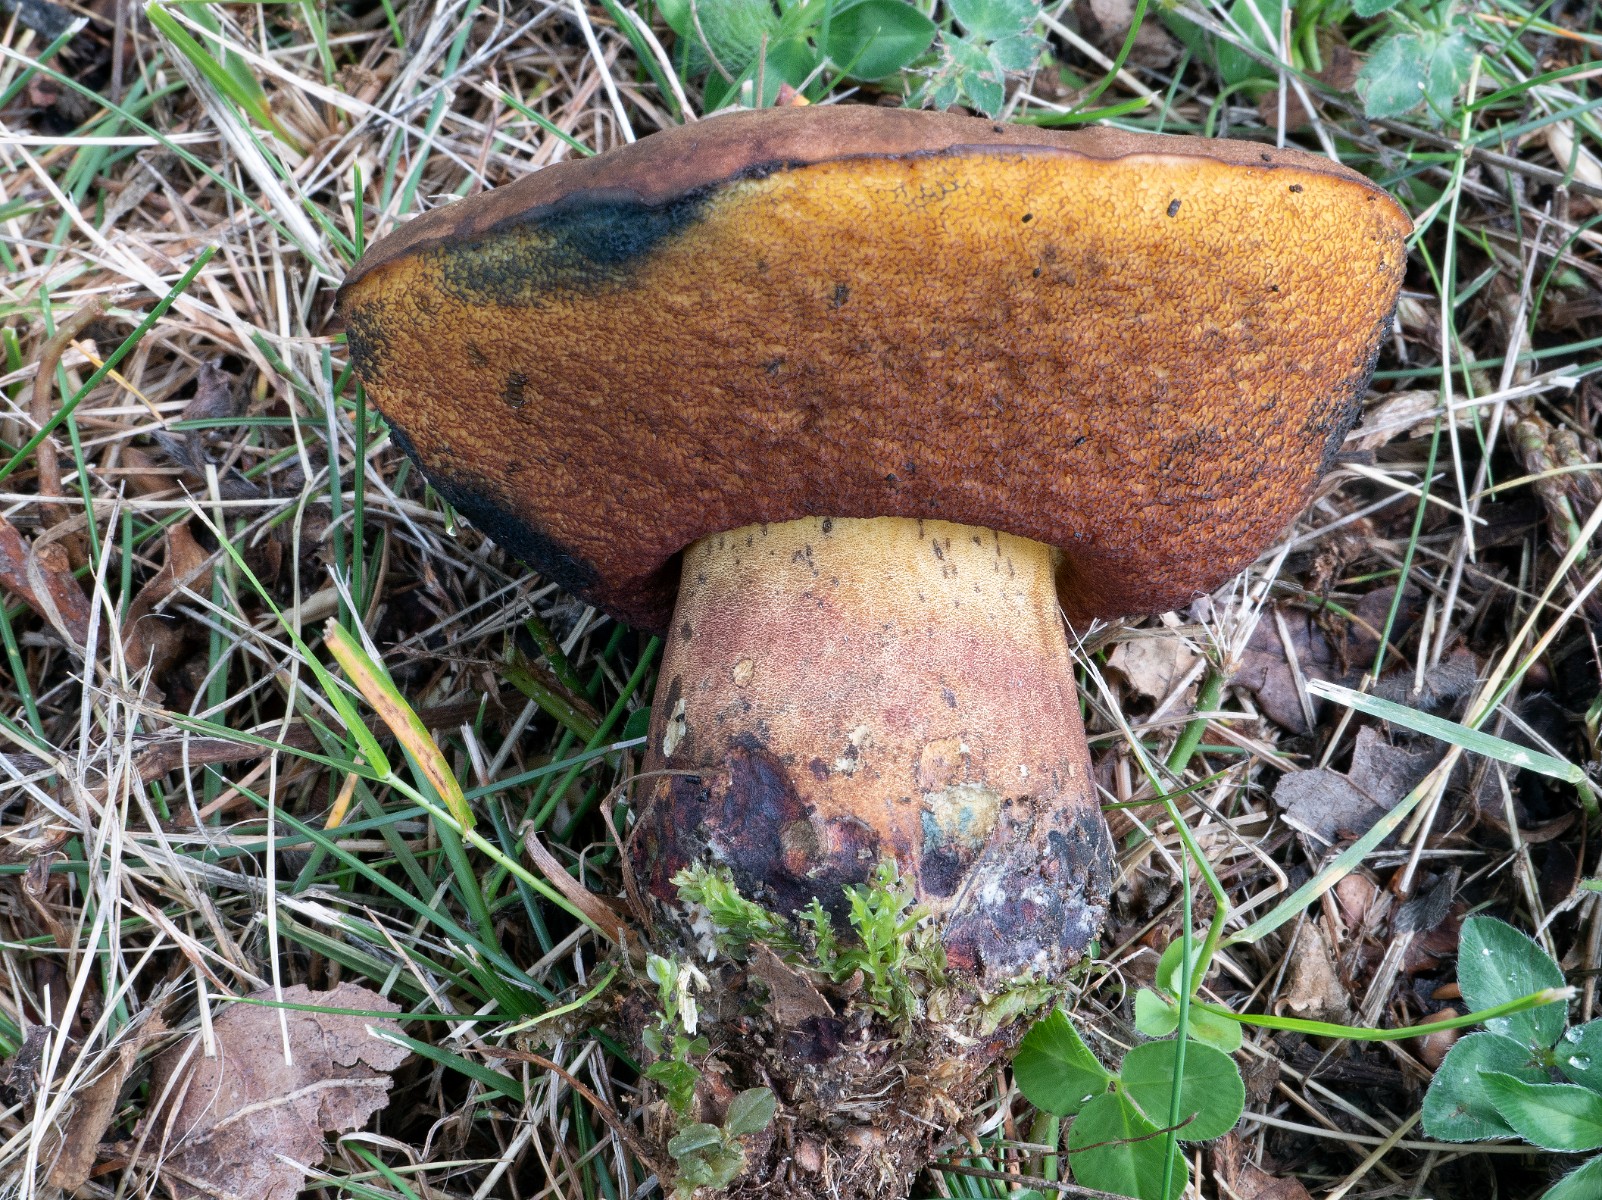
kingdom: Fungi
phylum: Basidiomycota
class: Agaricomycetes
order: Boletales
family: Boletaceae
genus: Neoboletus
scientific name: Neoboletus xanthopus
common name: finprikket indigorørhat
